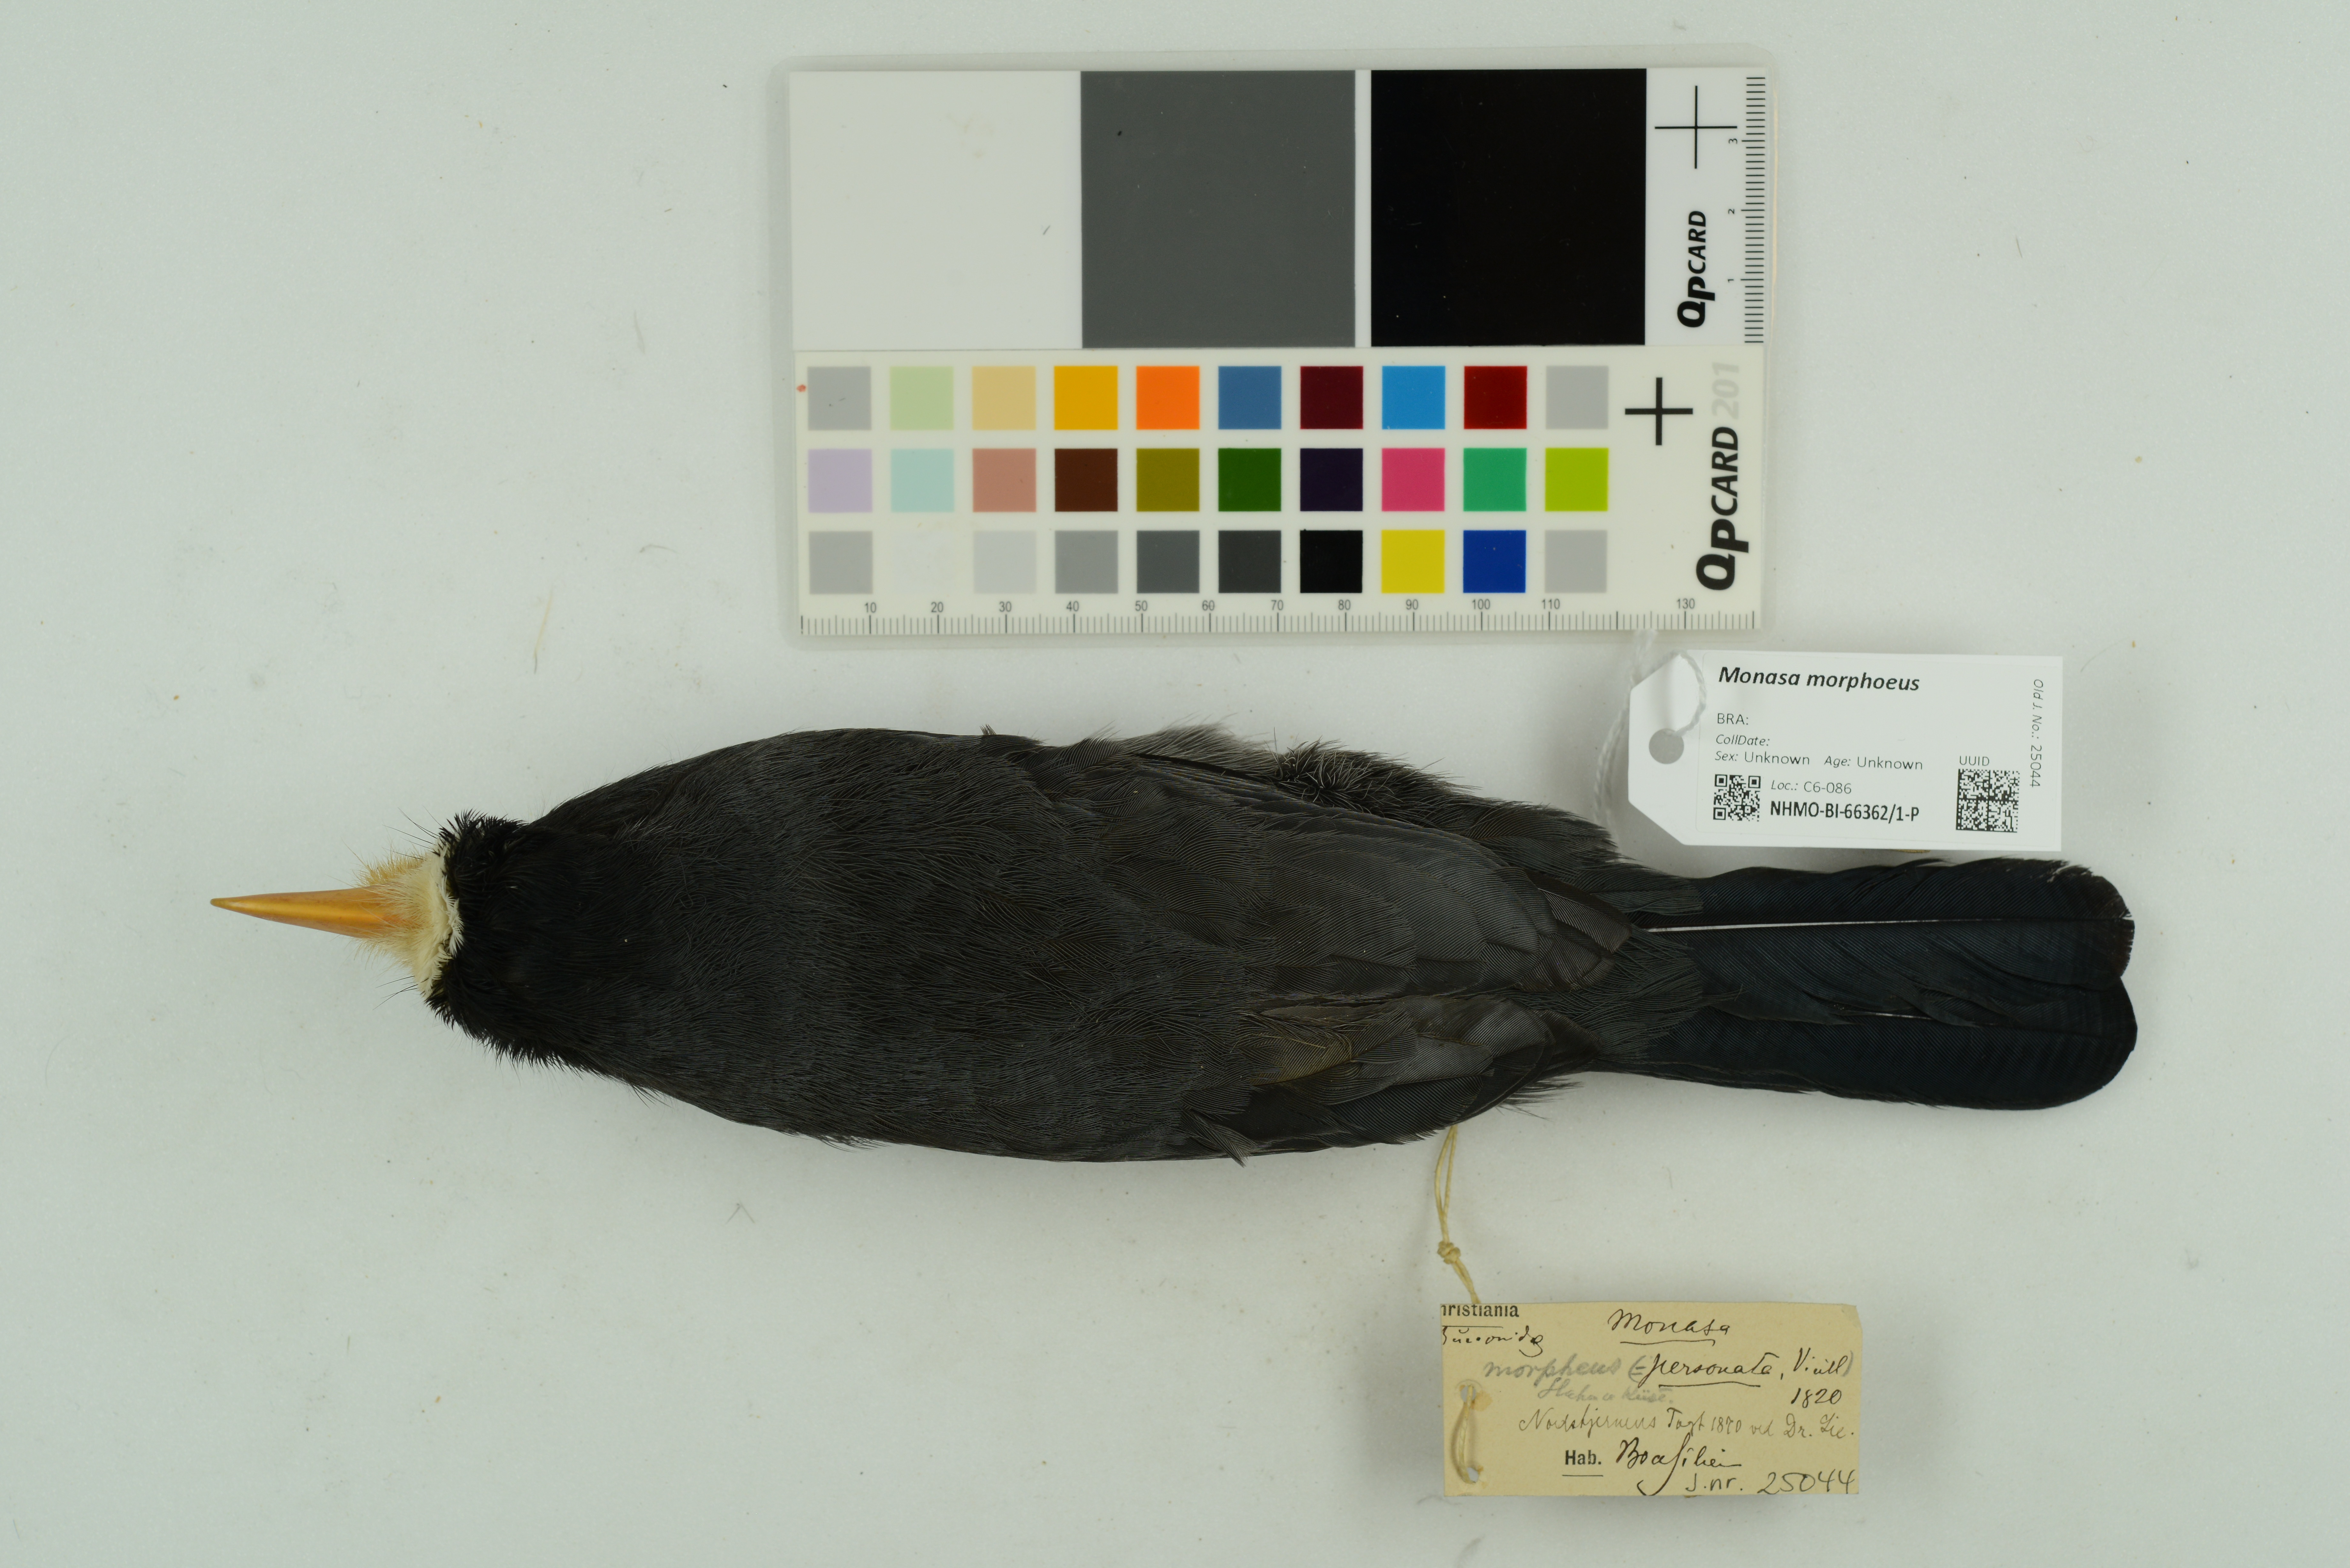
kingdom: Animalia
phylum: Chordata
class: Aves
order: Piciformes
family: Bucconidae
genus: Monasa
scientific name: Monasa morphoeus
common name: White-fronted nunbird
